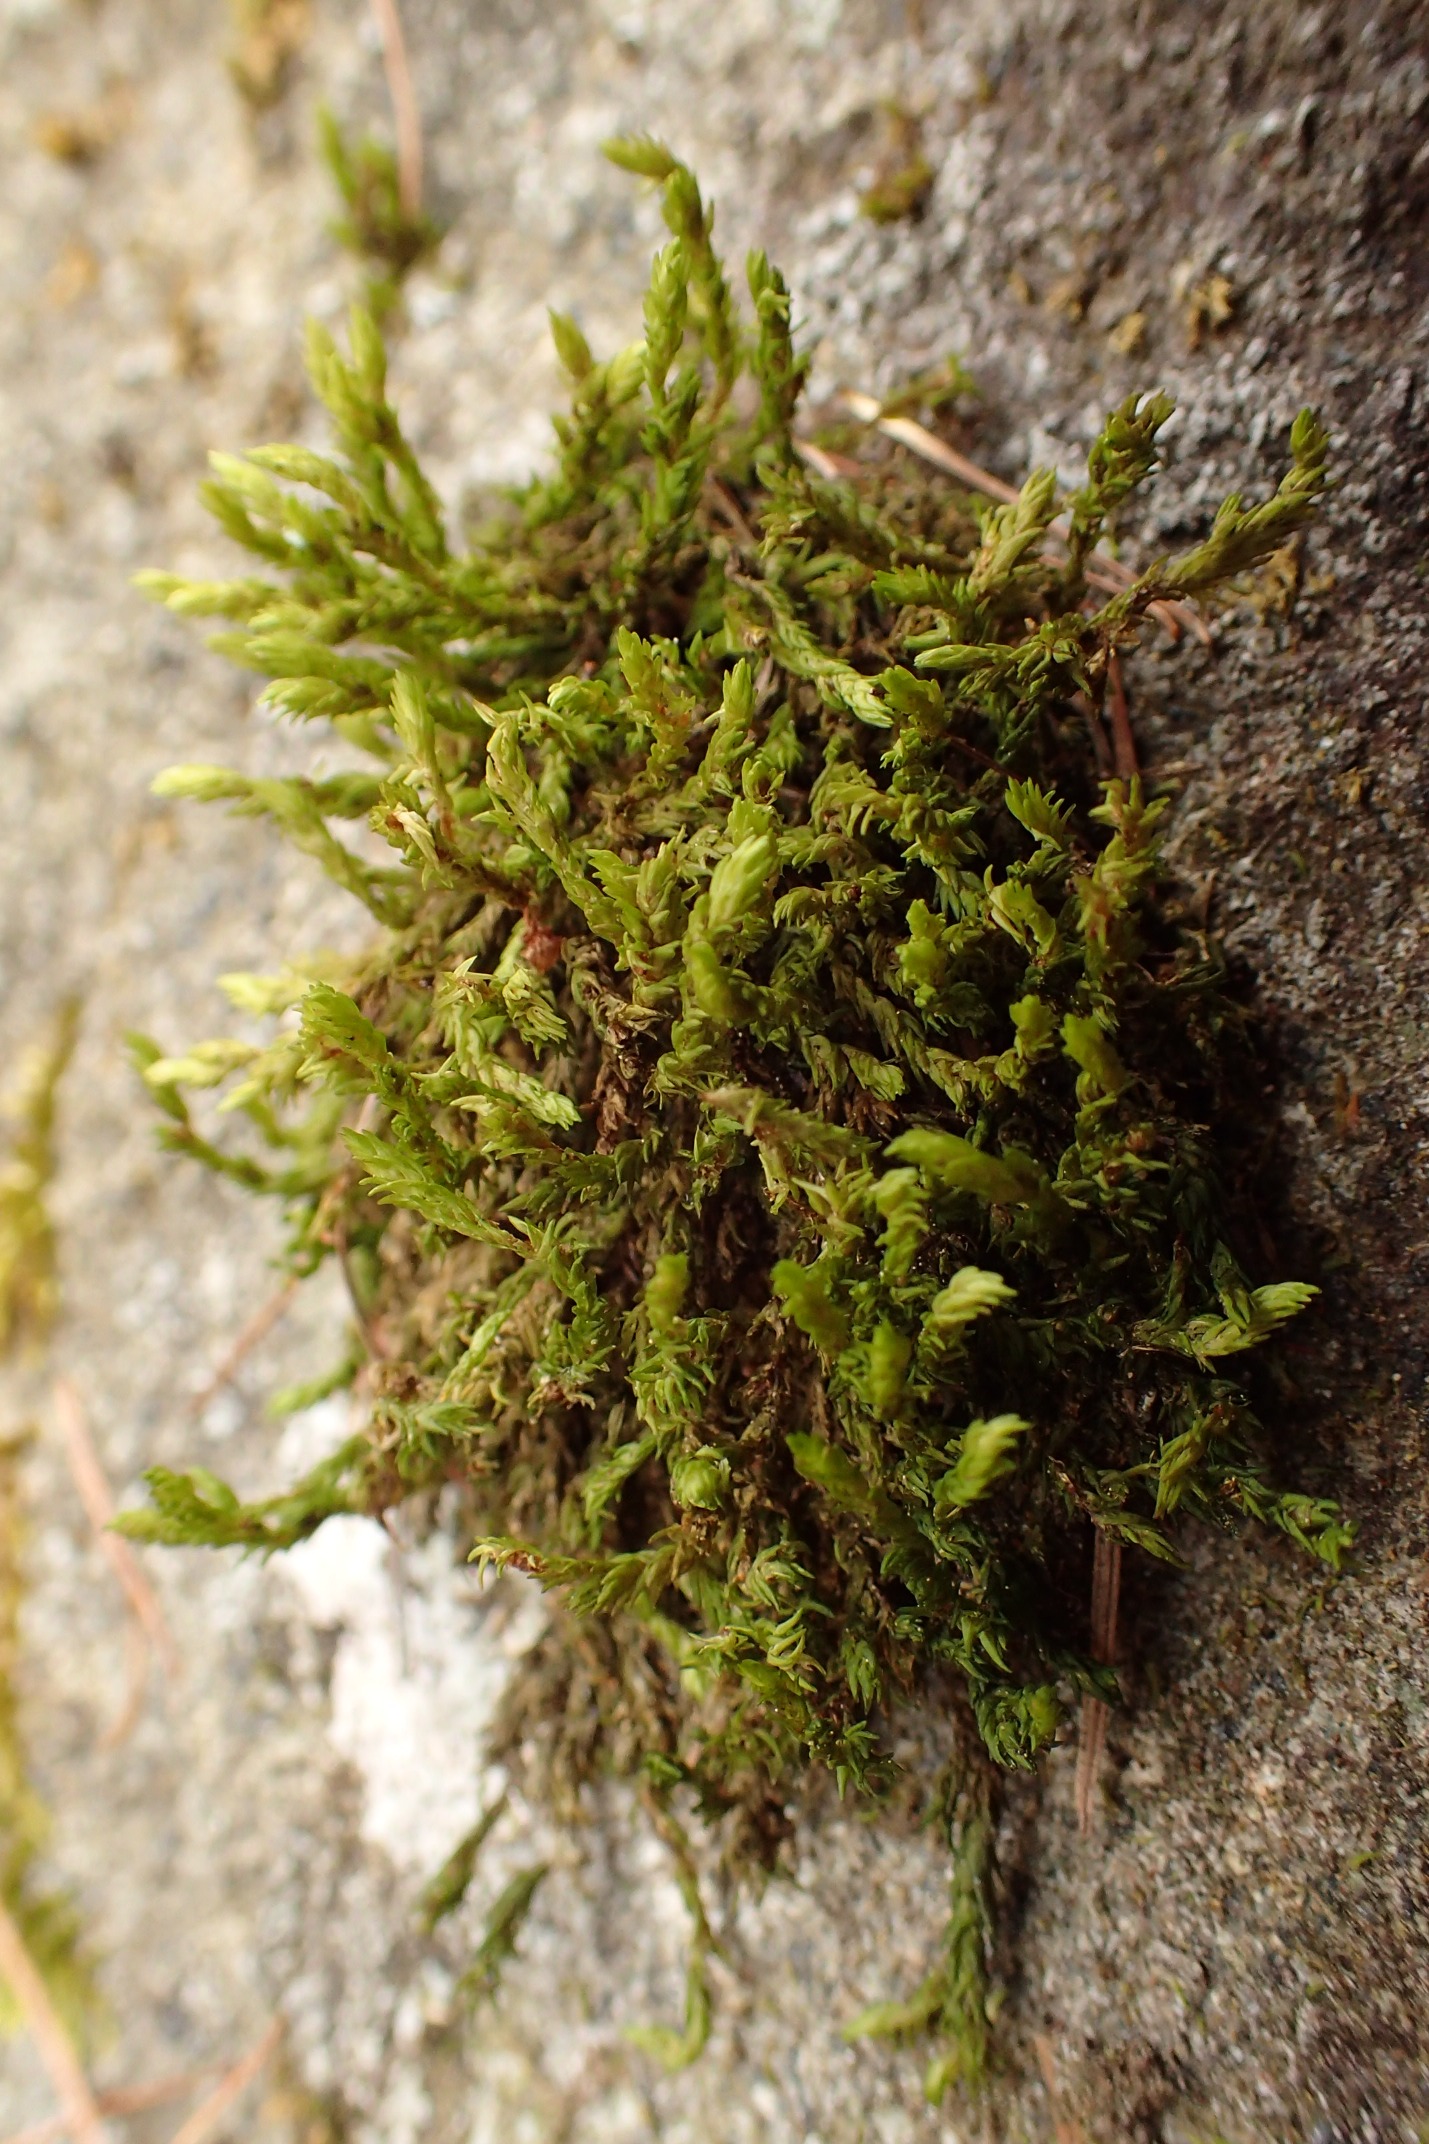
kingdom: Plantae
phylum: Bryophyta
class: Bryopsida
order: Grimmiales
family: Grimmiaceae
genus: Codriophorus
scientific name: Codriophorus acicularis
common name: Butbladet børstemos
